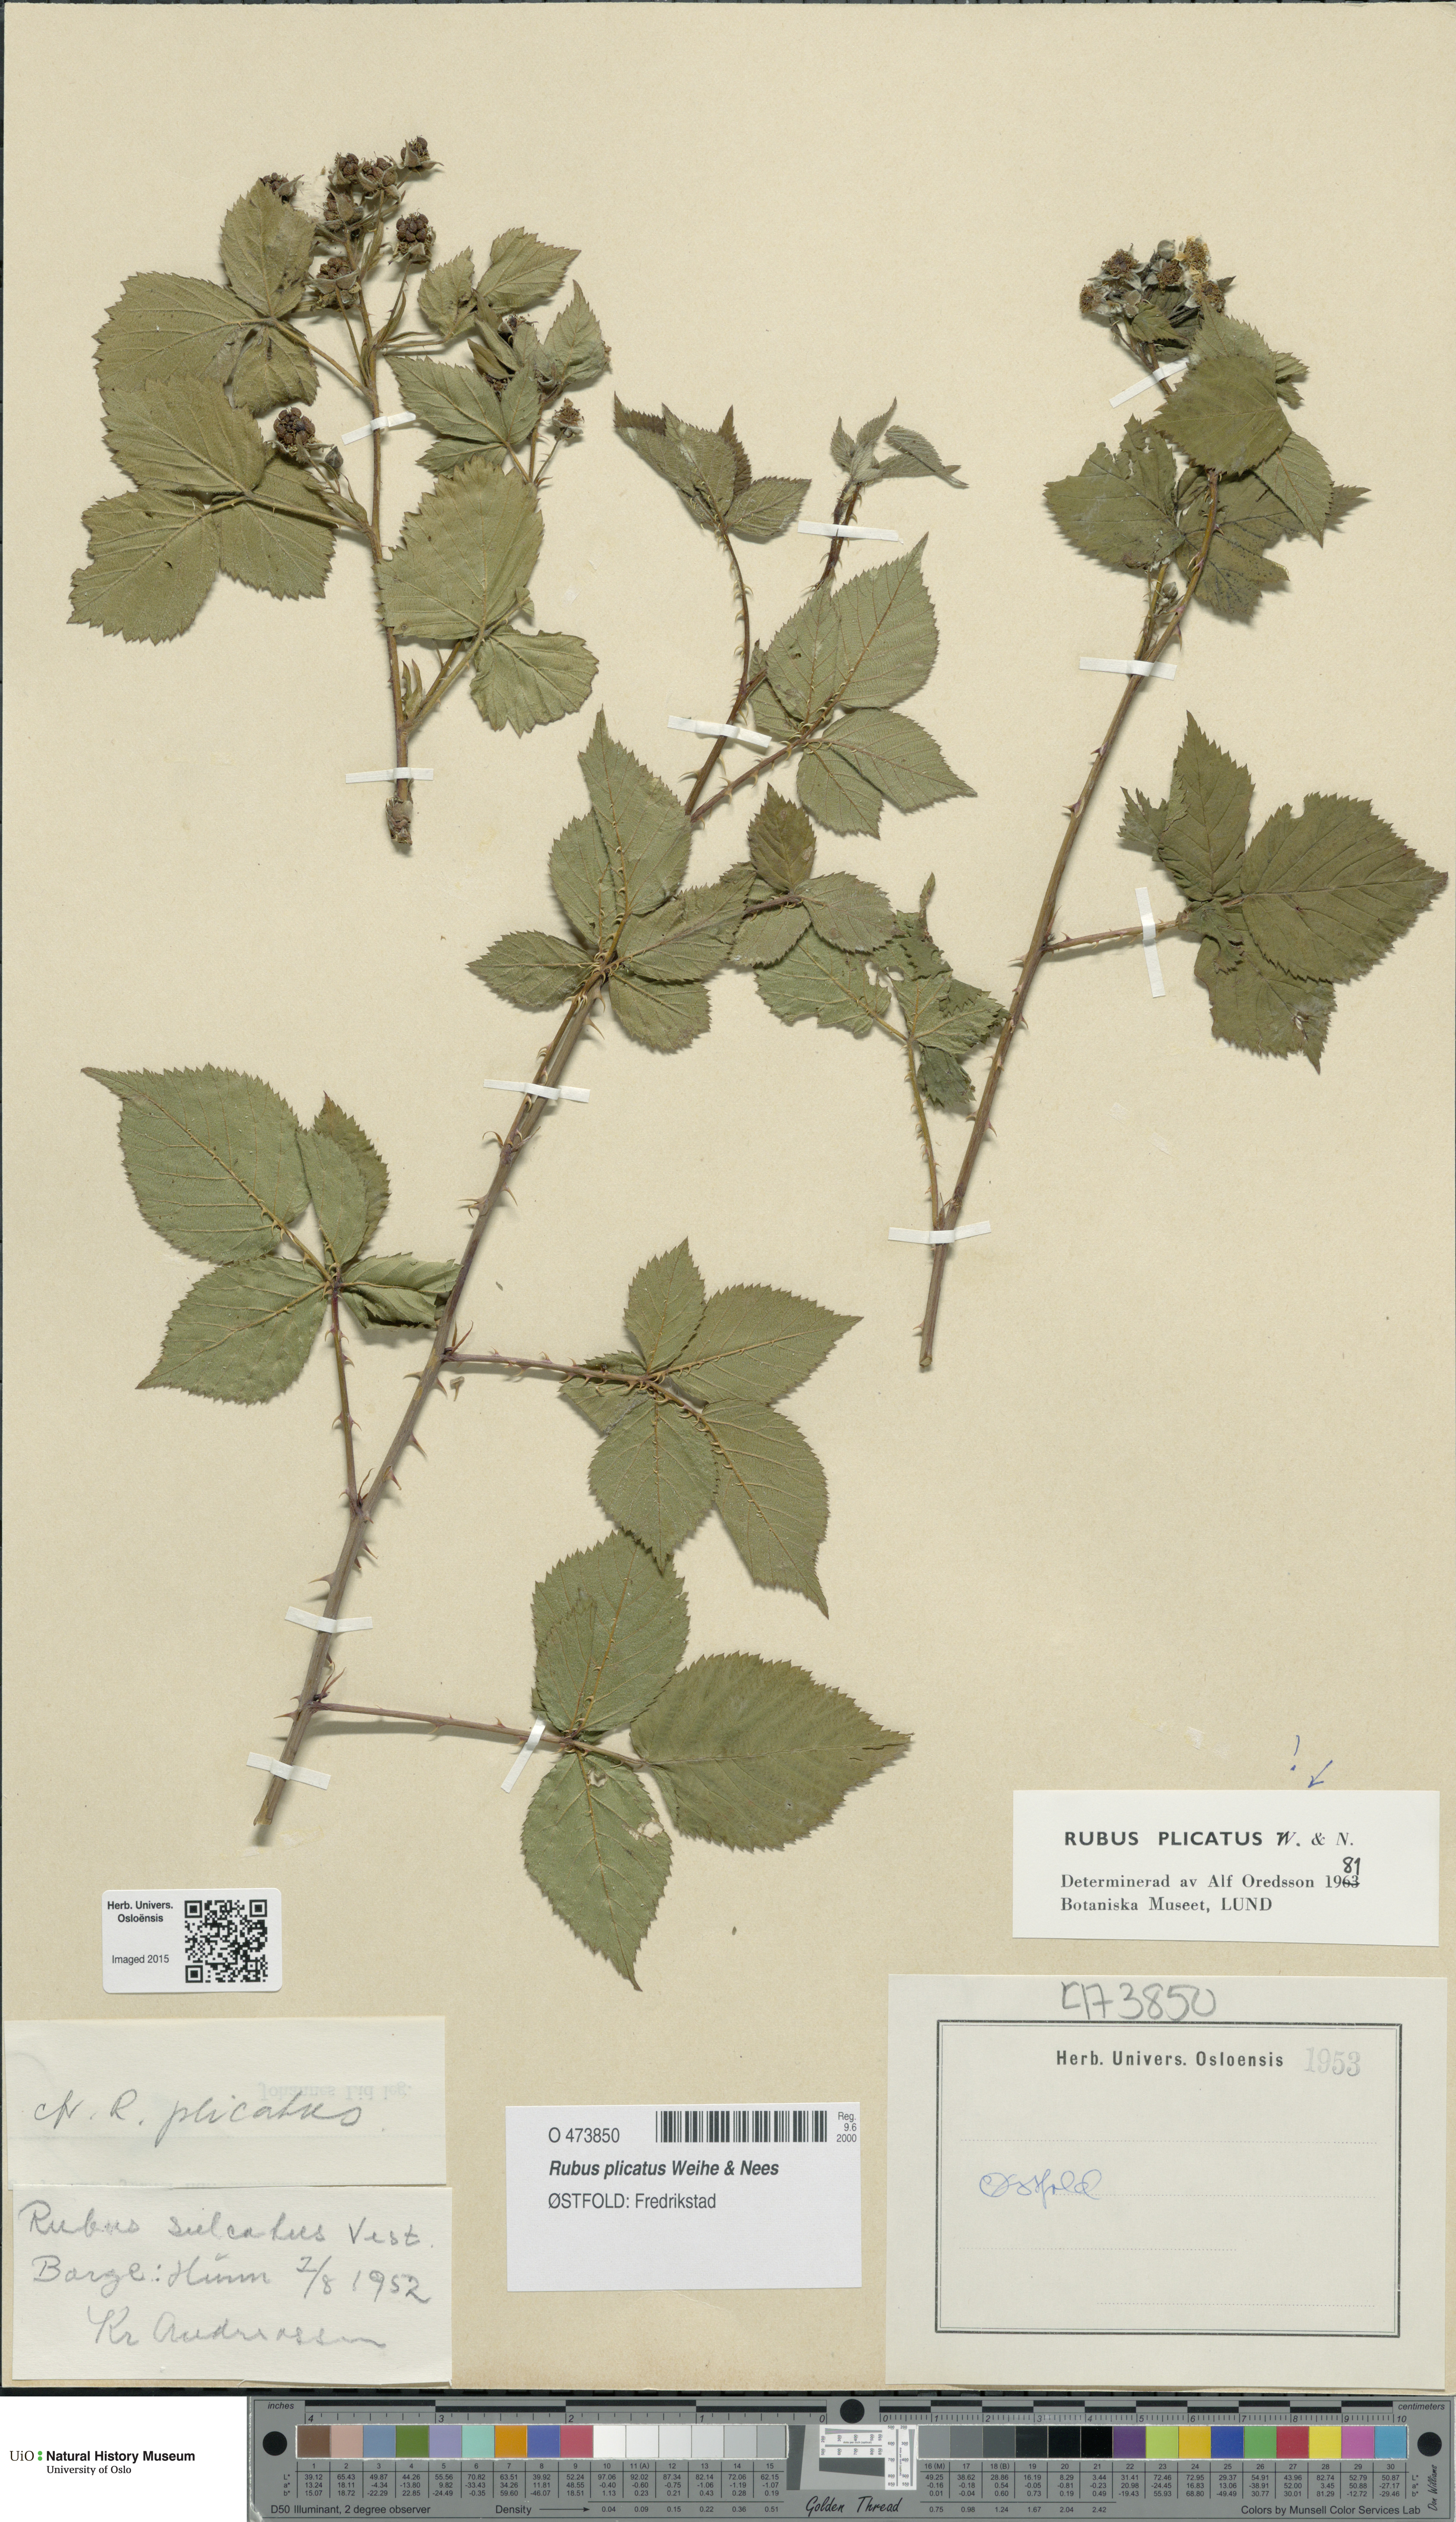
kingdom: Plantae
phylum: Tracheophyta
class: Magnoliopsida
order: Rosales
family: Rosaceae
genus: Rubus
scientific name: Rubus fruticosus
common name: Blackberry, bramble
